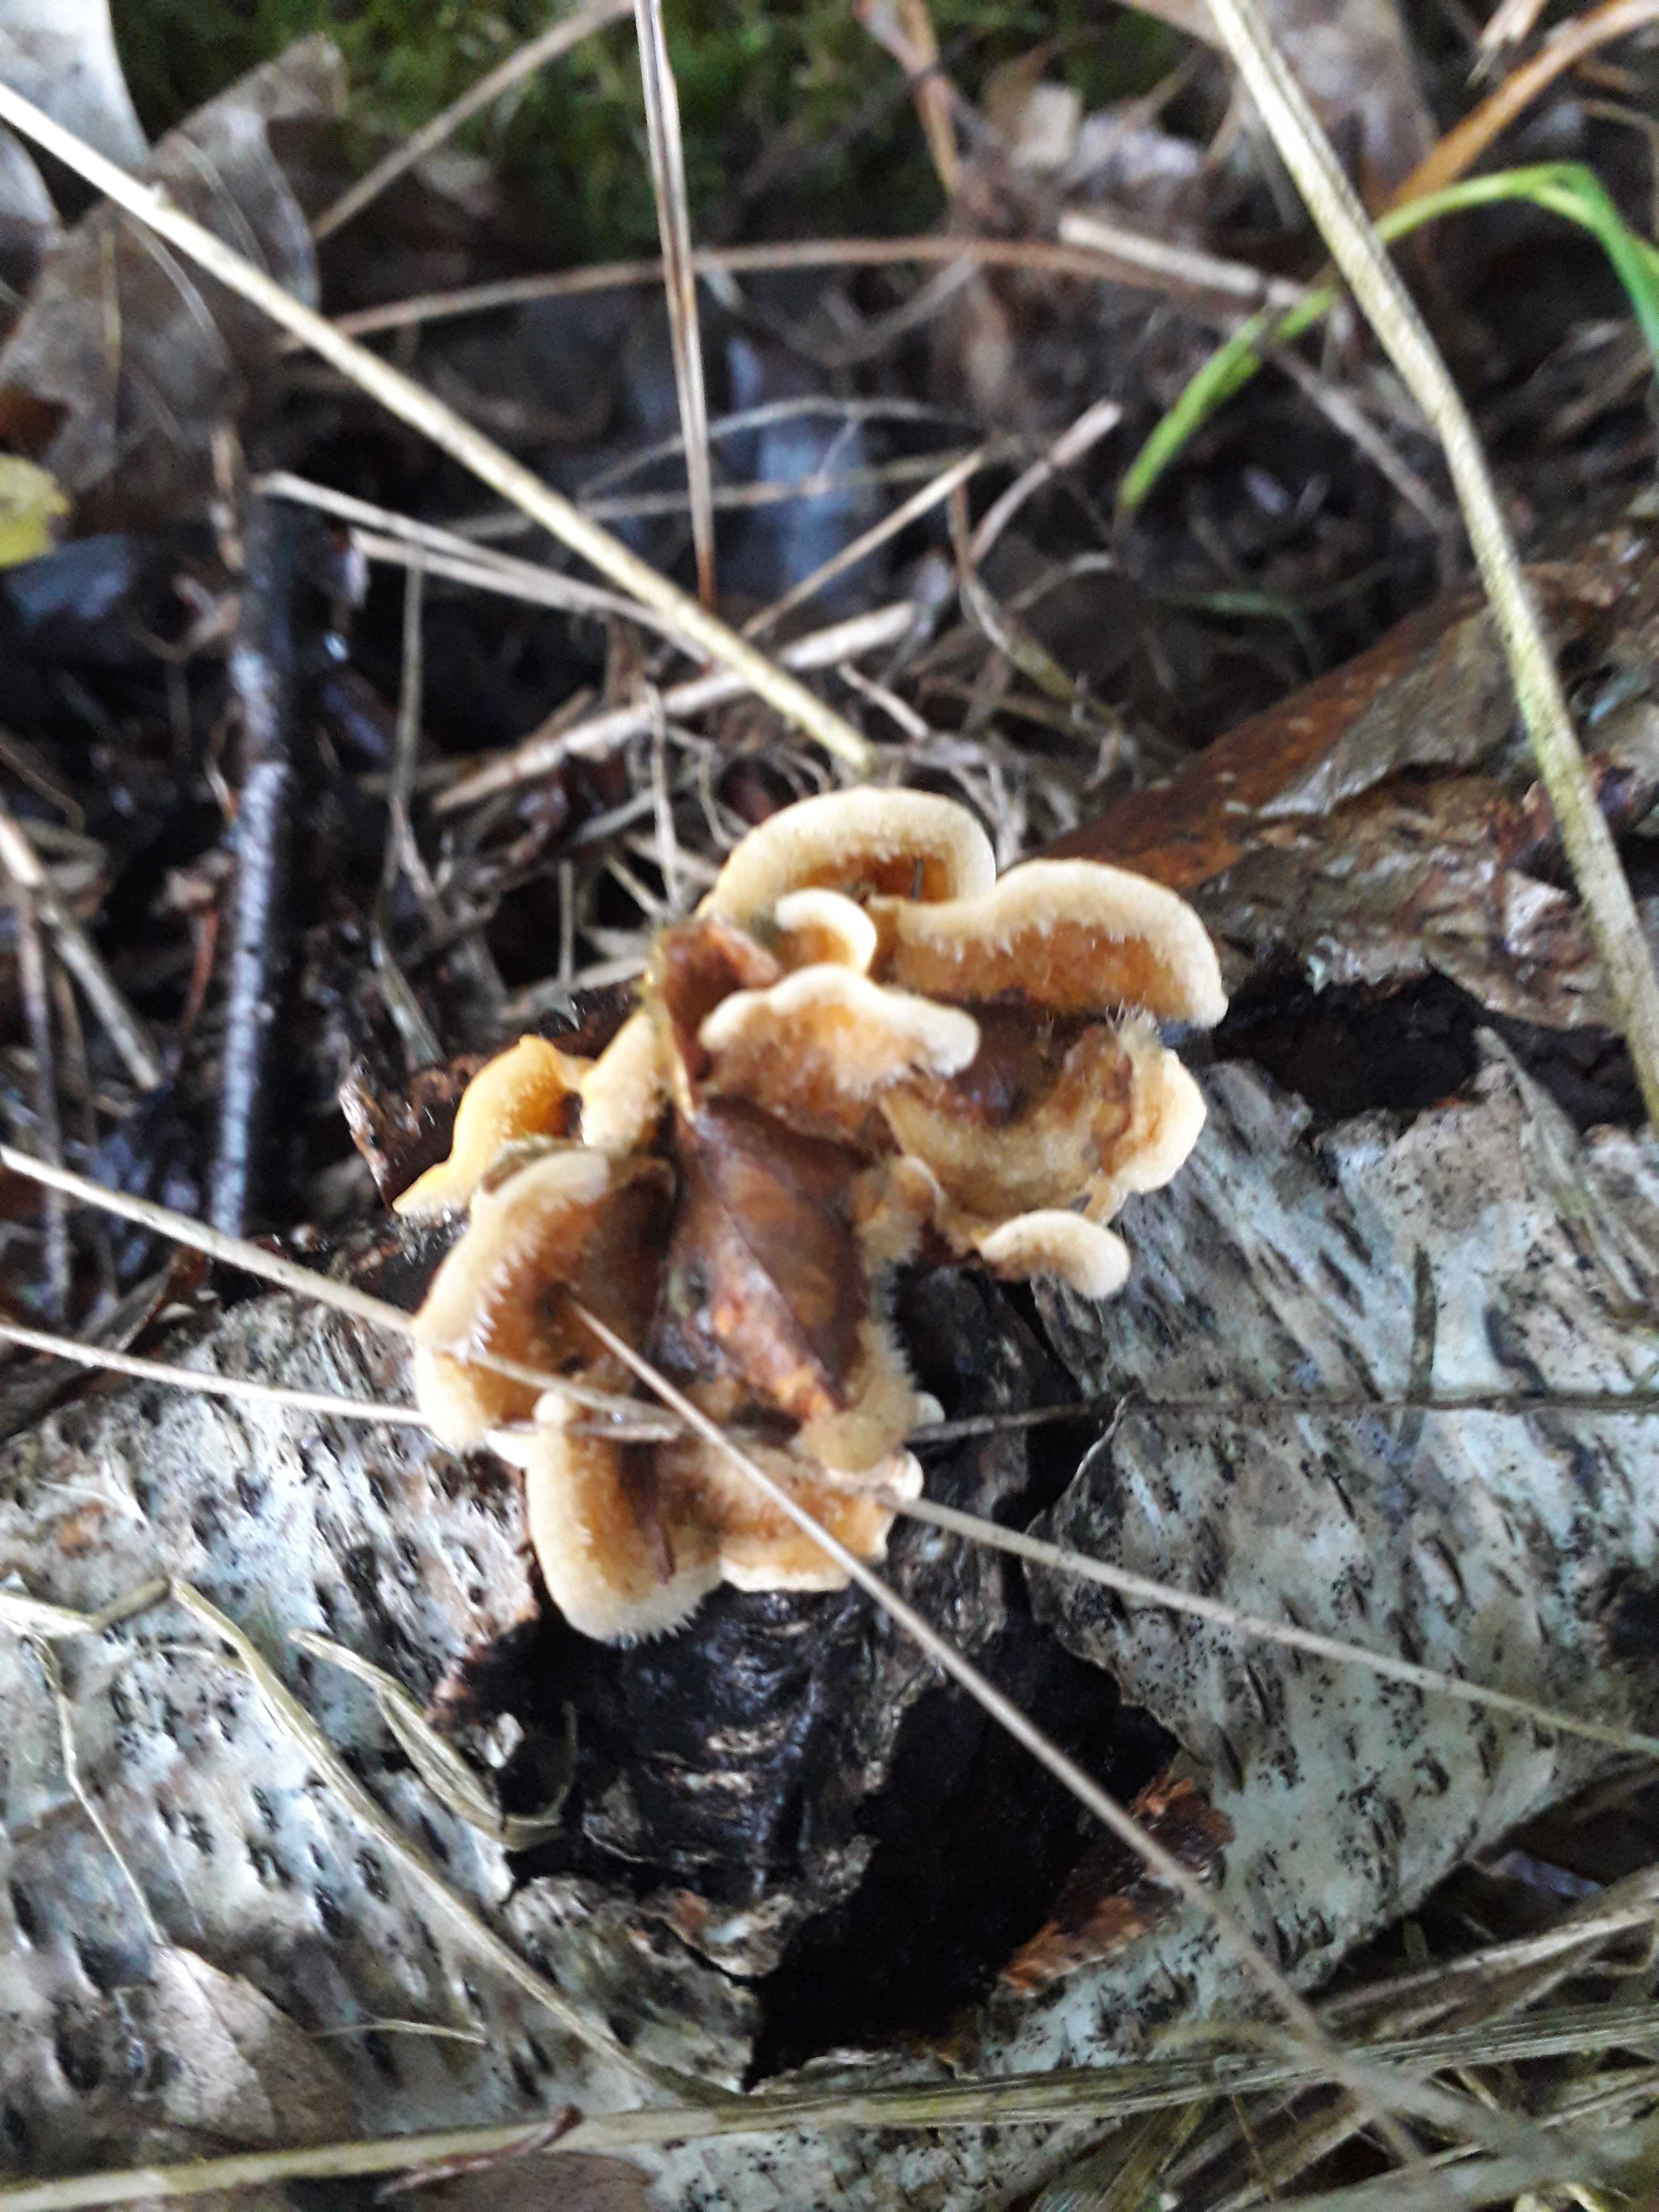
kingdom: Fungi
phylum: Basidiomycota
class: Agaricomycetes
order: Polyporales
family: Polyporaceae
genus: Trametes
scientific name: Trametes hirsuta
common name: håret læderporesvamp
